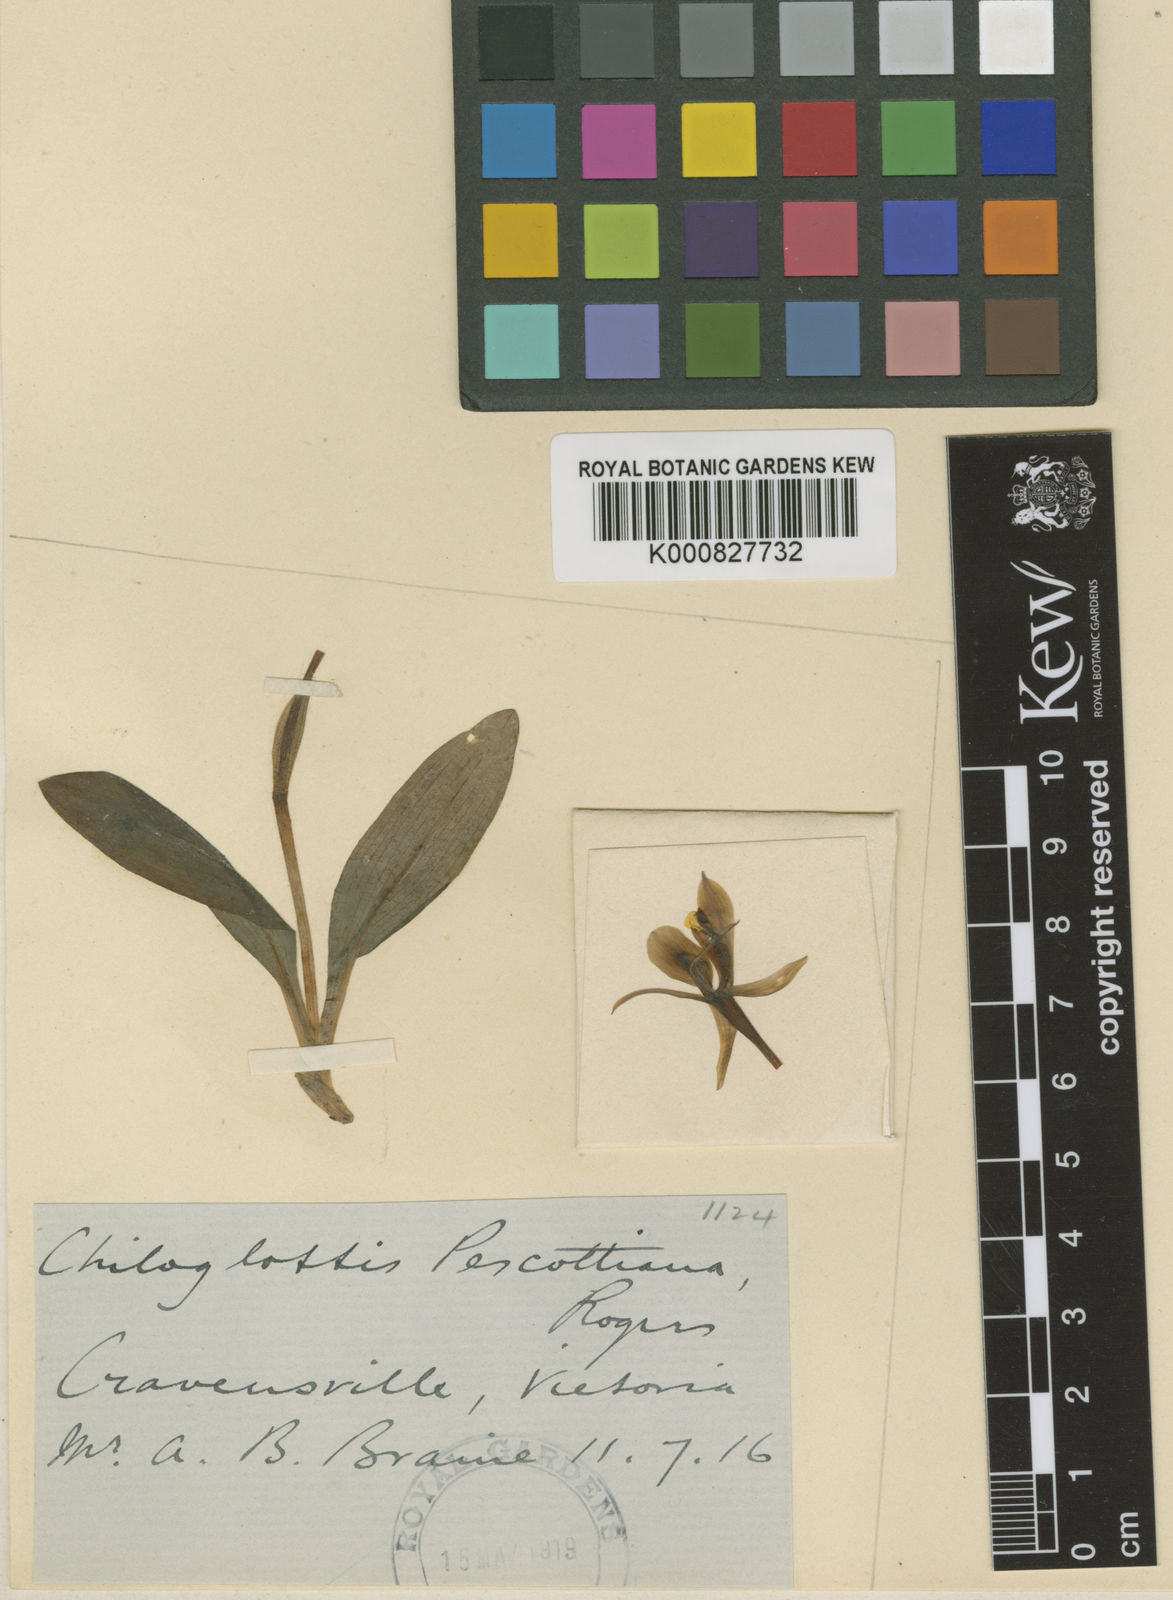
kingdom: Plantae
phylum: Tracheophyta
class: Liliopsida
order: Asparagales
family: Orchidaceae
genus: Chiloglottis
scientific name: Chiloglottis pescottiana
